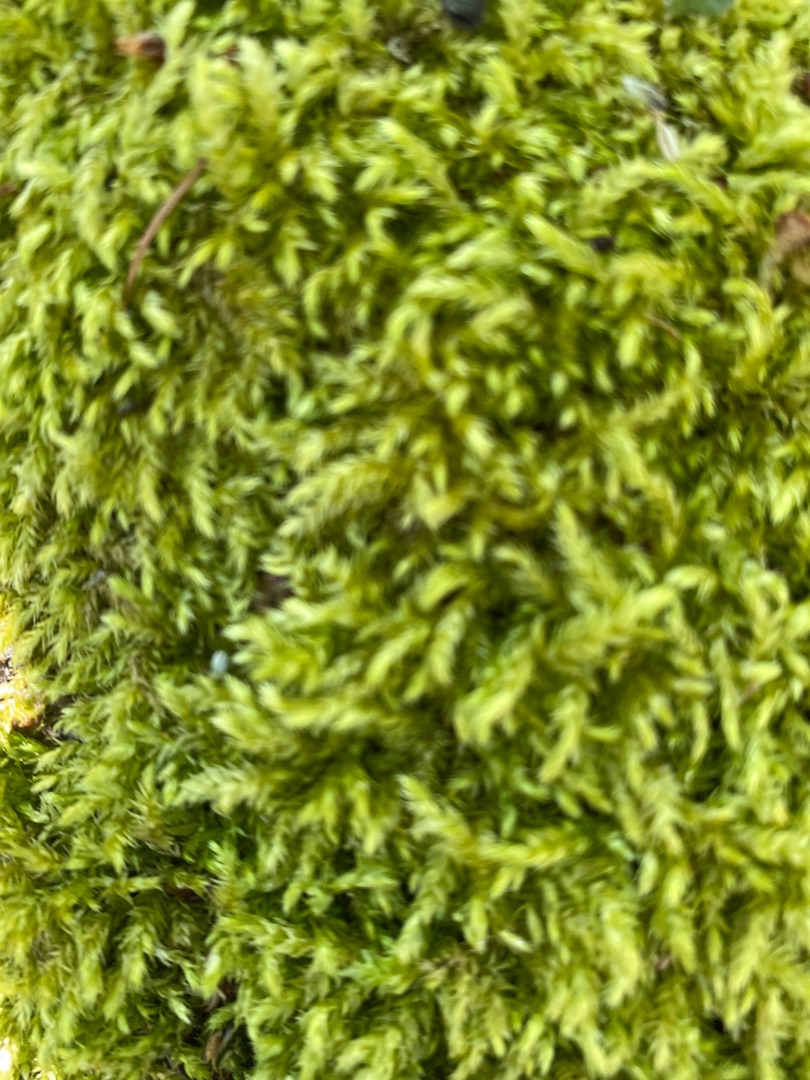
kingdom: Plantae
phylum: Bryophyta
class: Bryopsida
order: Hypnales
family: Brachytheciaceae
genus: Brachythecium
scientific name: Brachythecium rutabulum
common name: Almindelig kortkapsel
